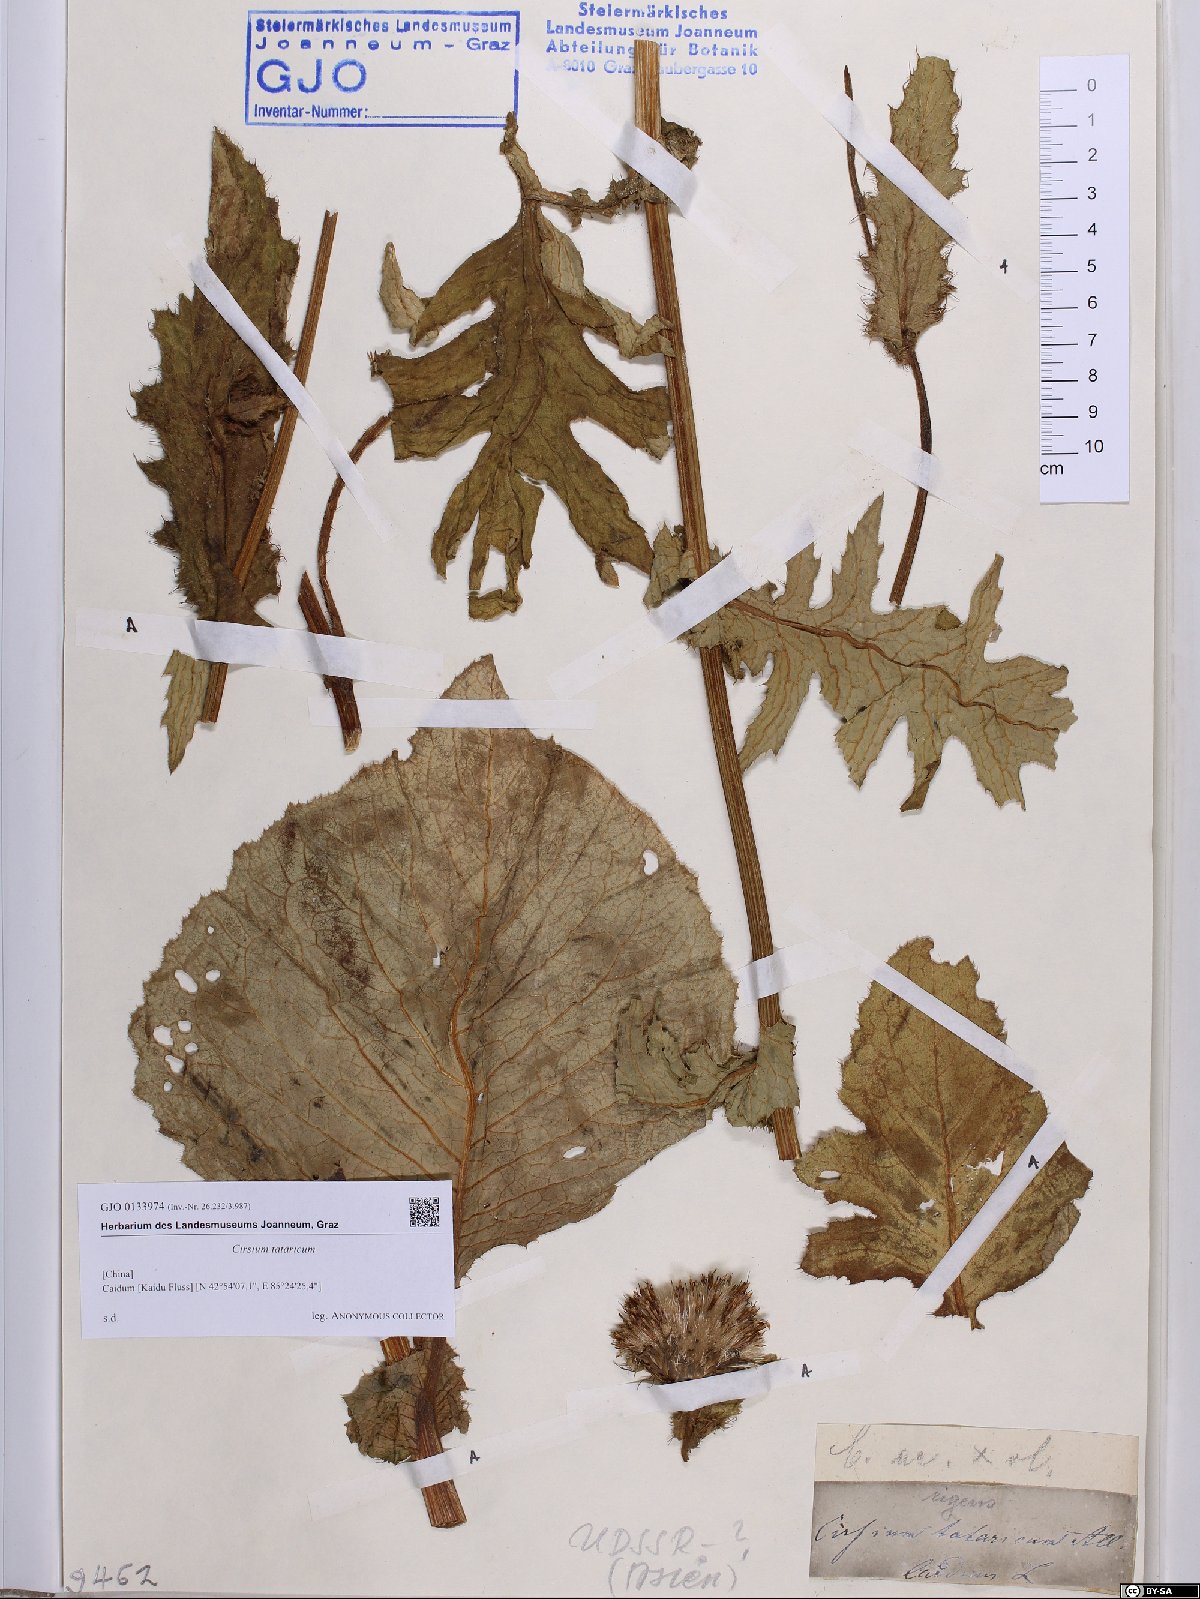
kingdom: Plantae
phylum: Tracheophyta
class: Magnoliopsida
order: Asterales
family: Asteraceae
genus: Cirsium
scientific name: Cirsium tataricum
